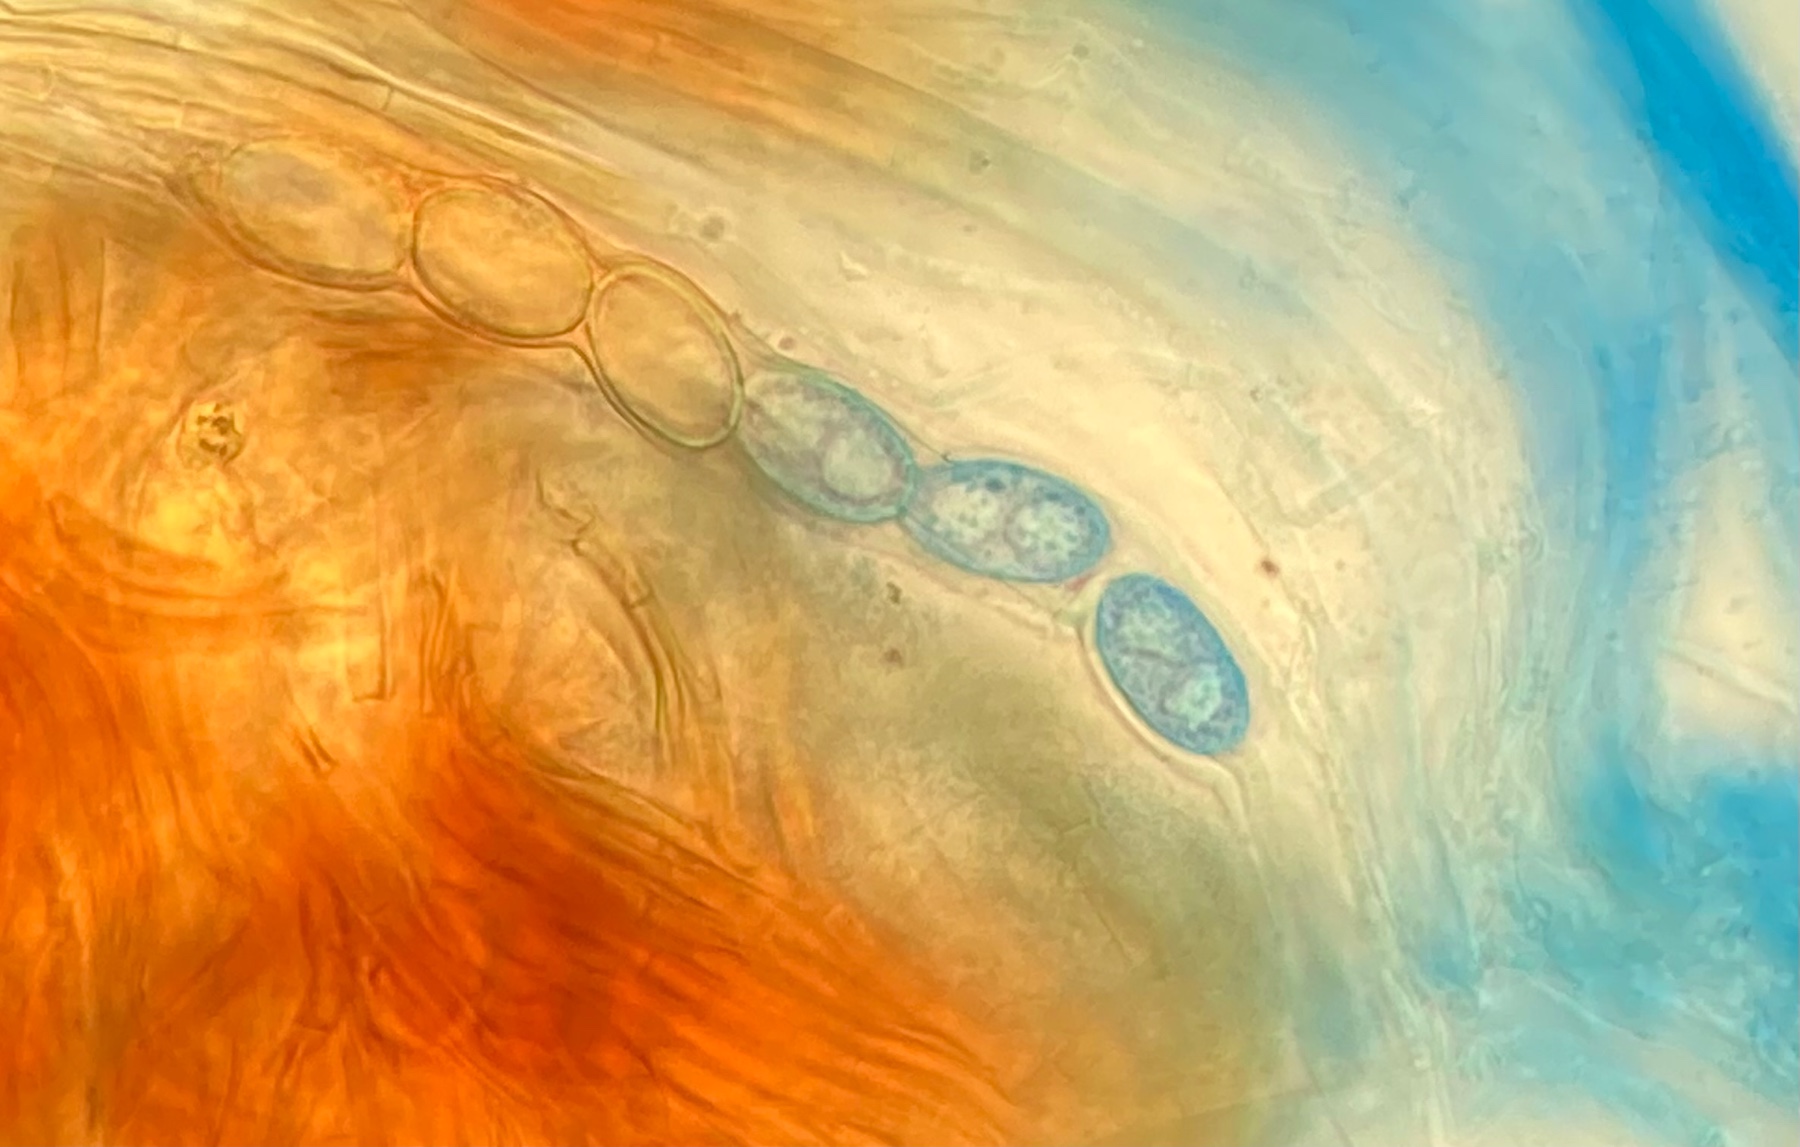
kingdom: Fungi
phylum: Ascomycota
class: Pezizomycetes
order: Pezizales
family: Pyronemataceae
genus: Humaria
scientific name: Humaria hemisphaerica
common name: halvkugleformet børstebæger
